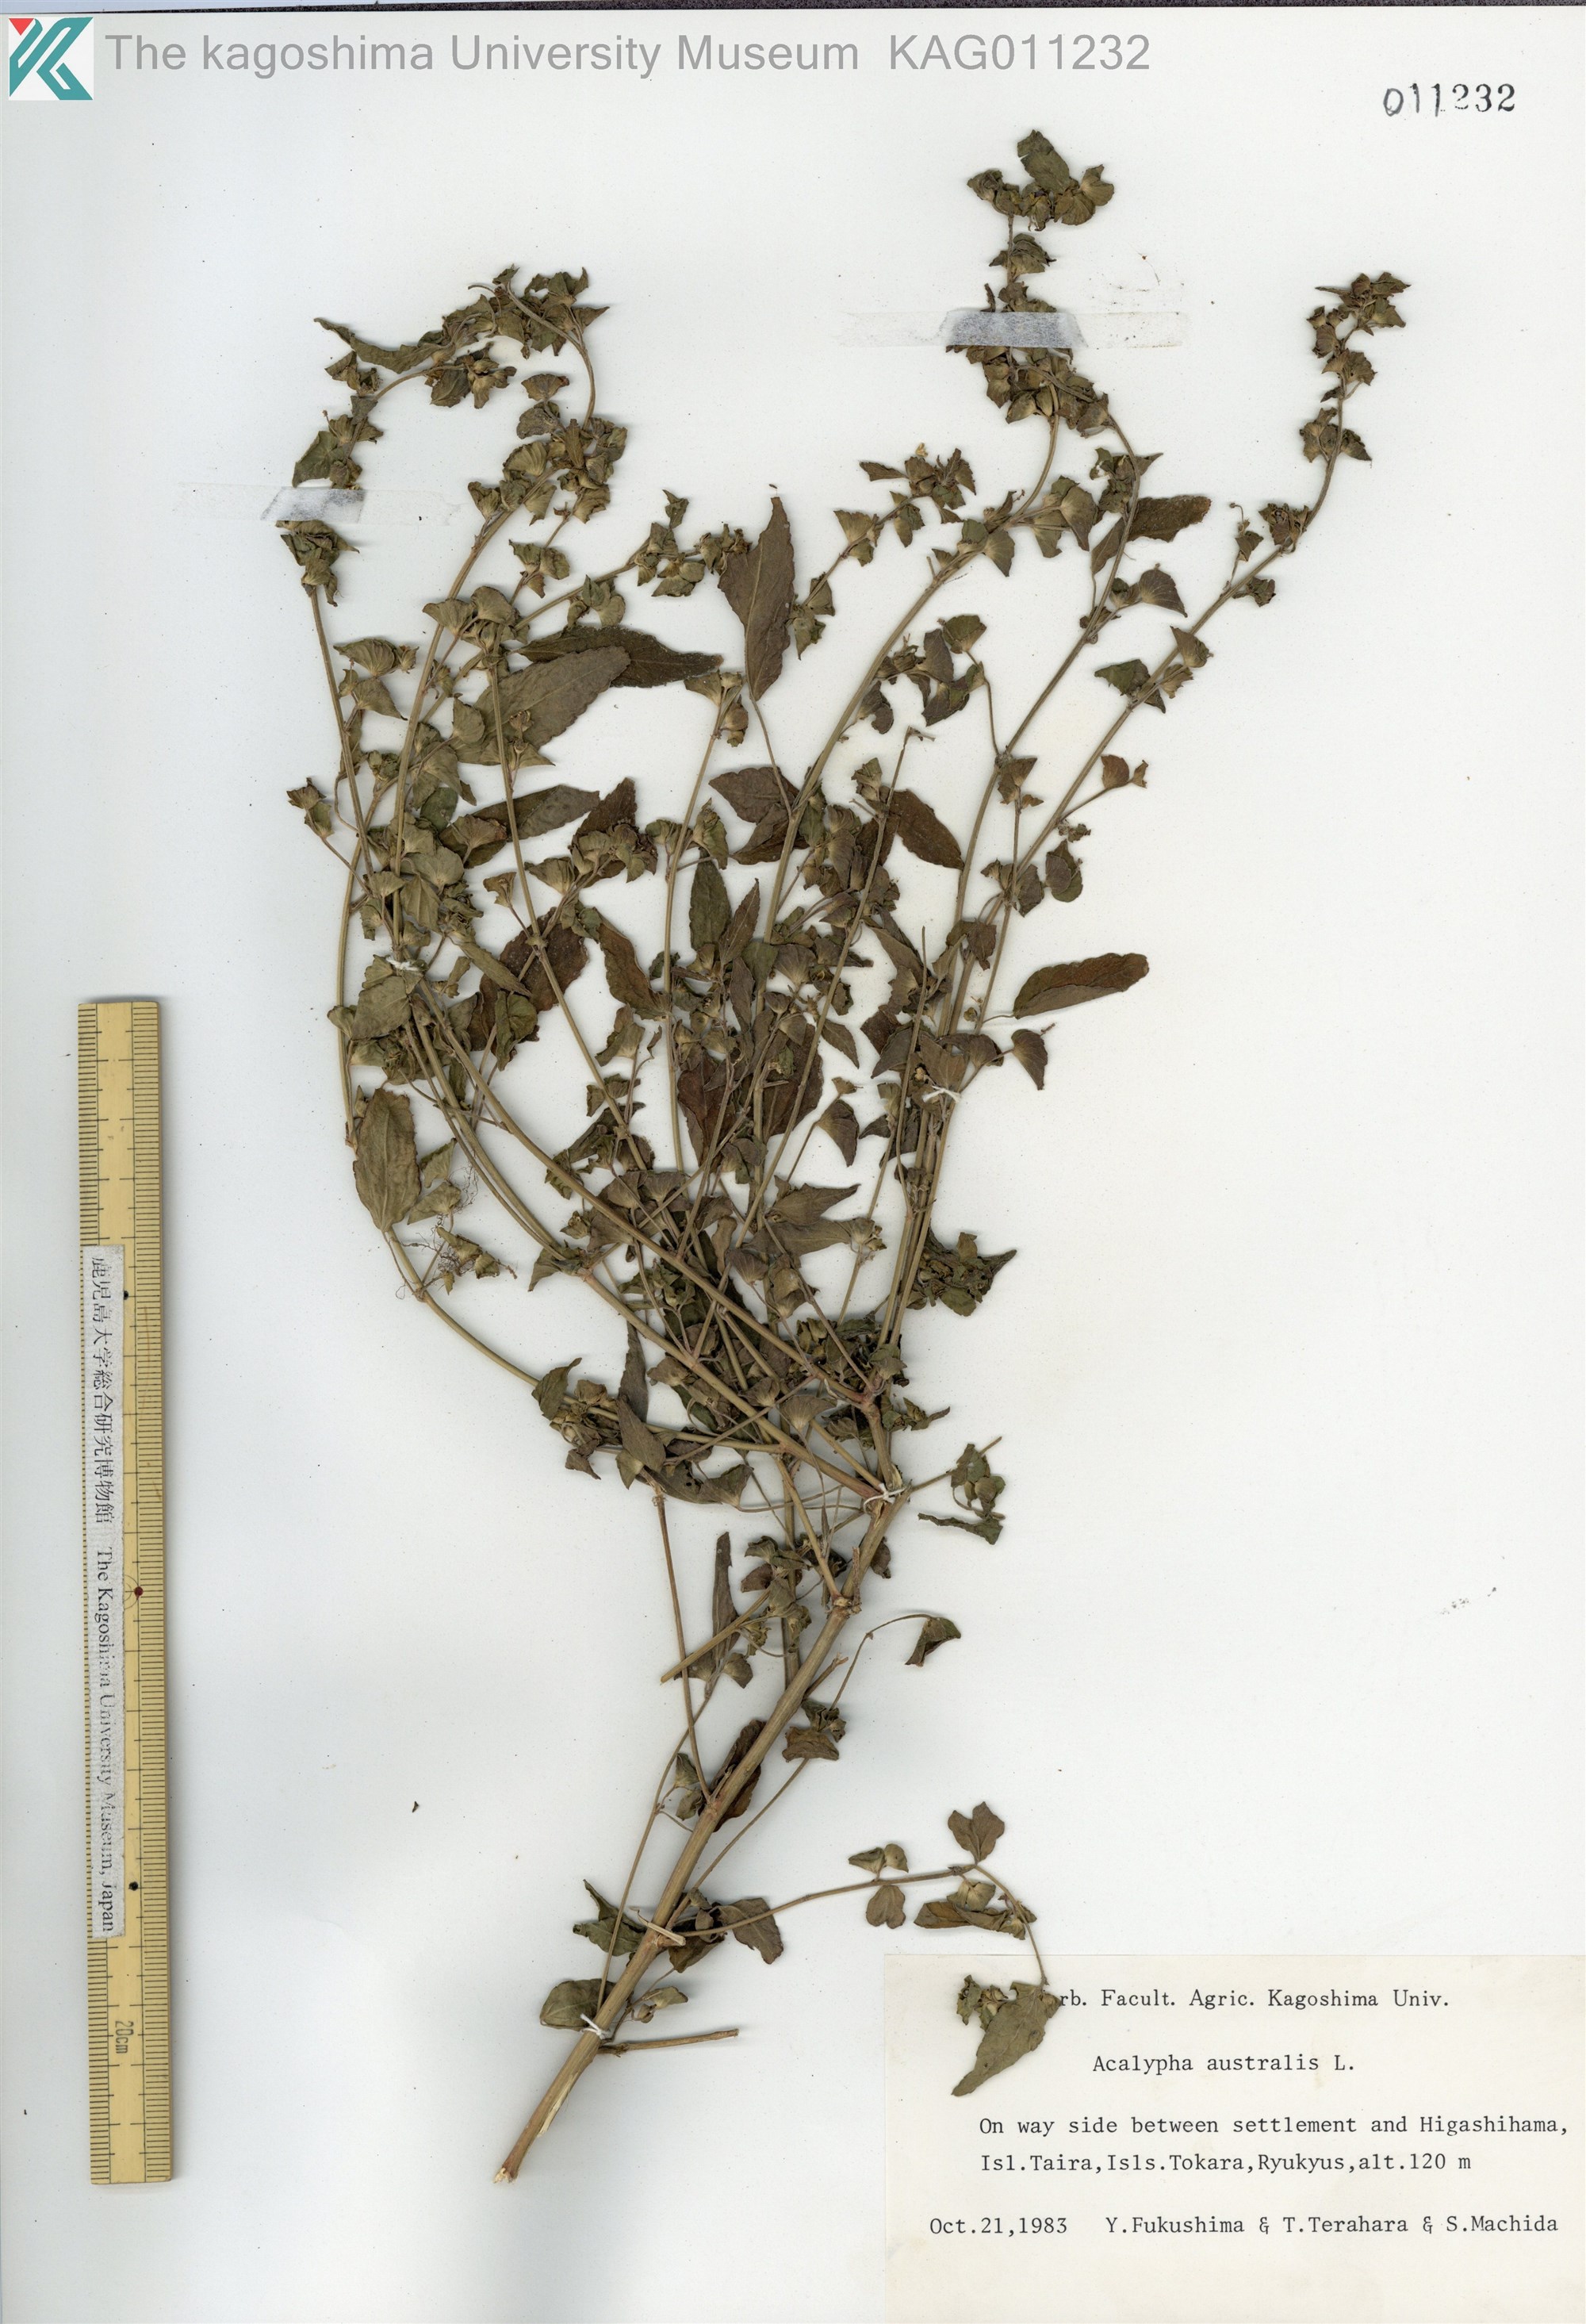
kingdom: Plantae
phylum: Tracheophyta
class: Magnoliopsida
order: Malpighiales
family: Euphorbiaceae
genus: Acalypha
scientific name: Acalypha australis
